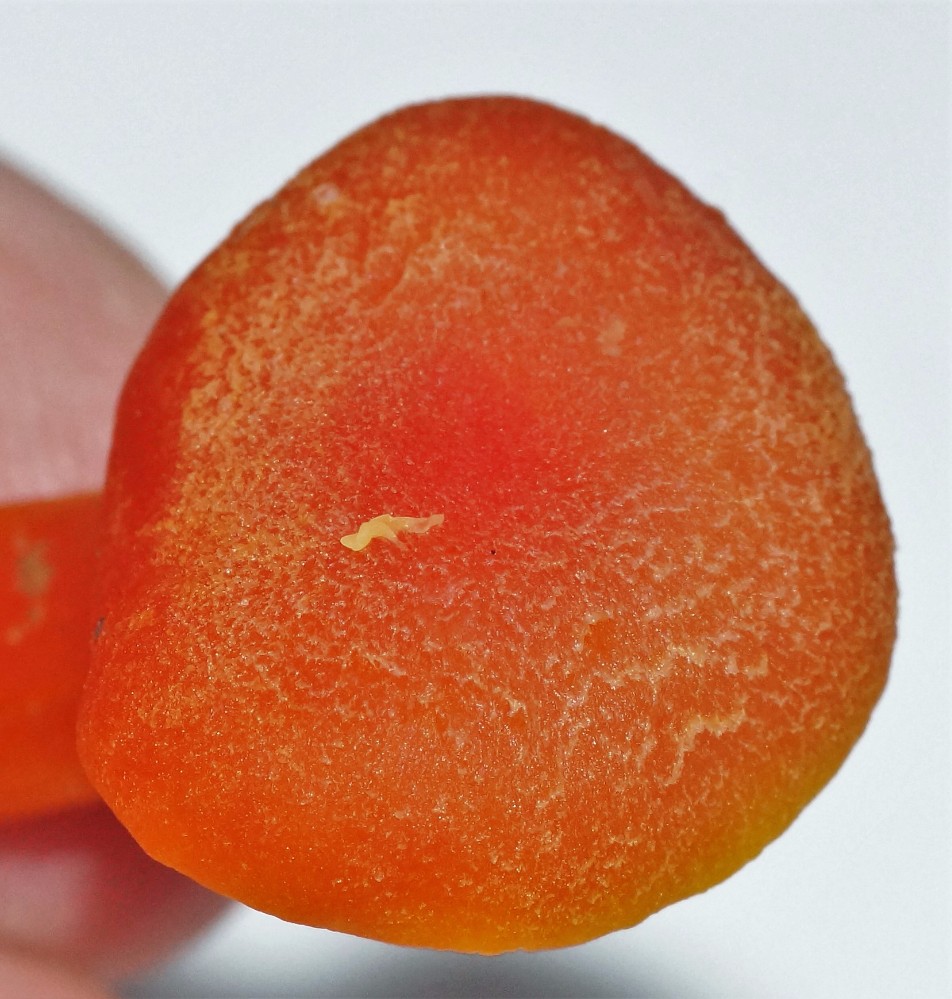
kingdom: Fungi
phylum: Basidiomycota
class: Agaricomycetes
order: Agaricales
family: Hygrophoraceae
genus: Hygrocybe
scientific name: Hygrocybe miniata
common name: mønje-vokshat
